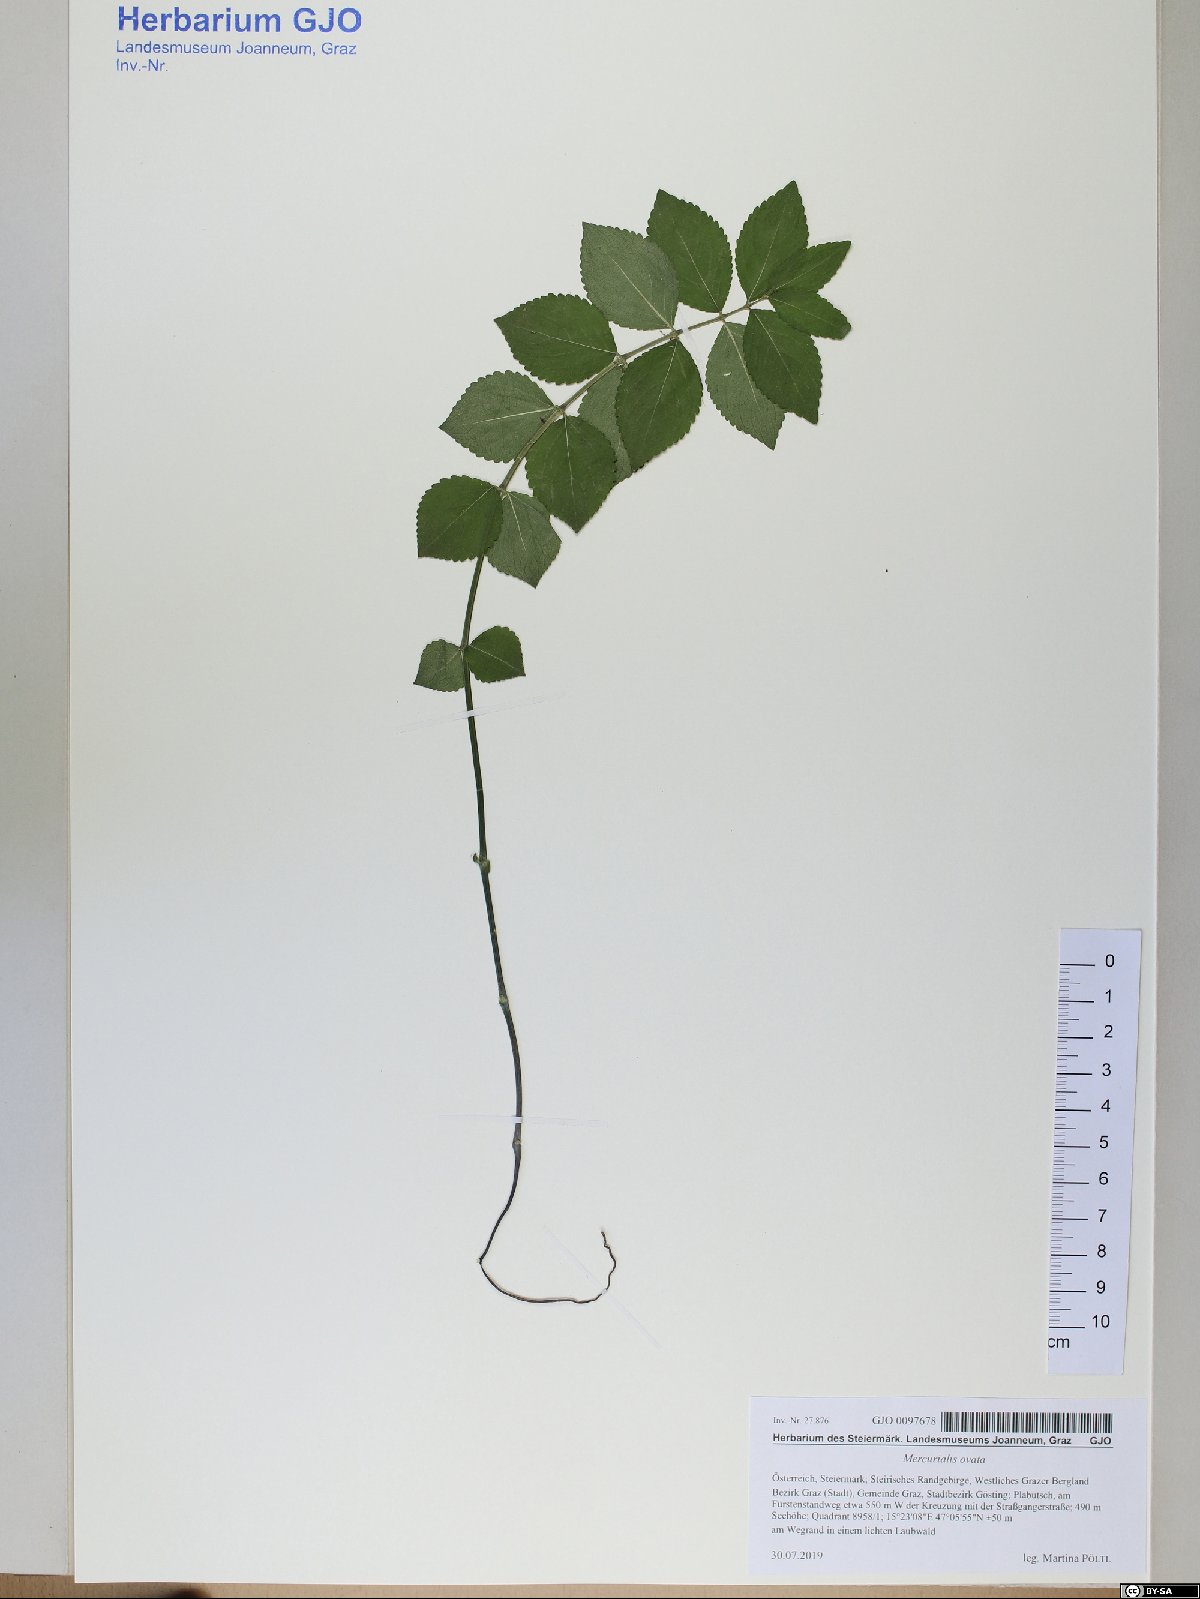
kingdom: Plantae
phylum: Tracheophyta
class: Magnoliopsida
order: Malpighiales
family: Euphorbiaceae
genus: Mercurialis
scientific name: Mercurialis ovata
